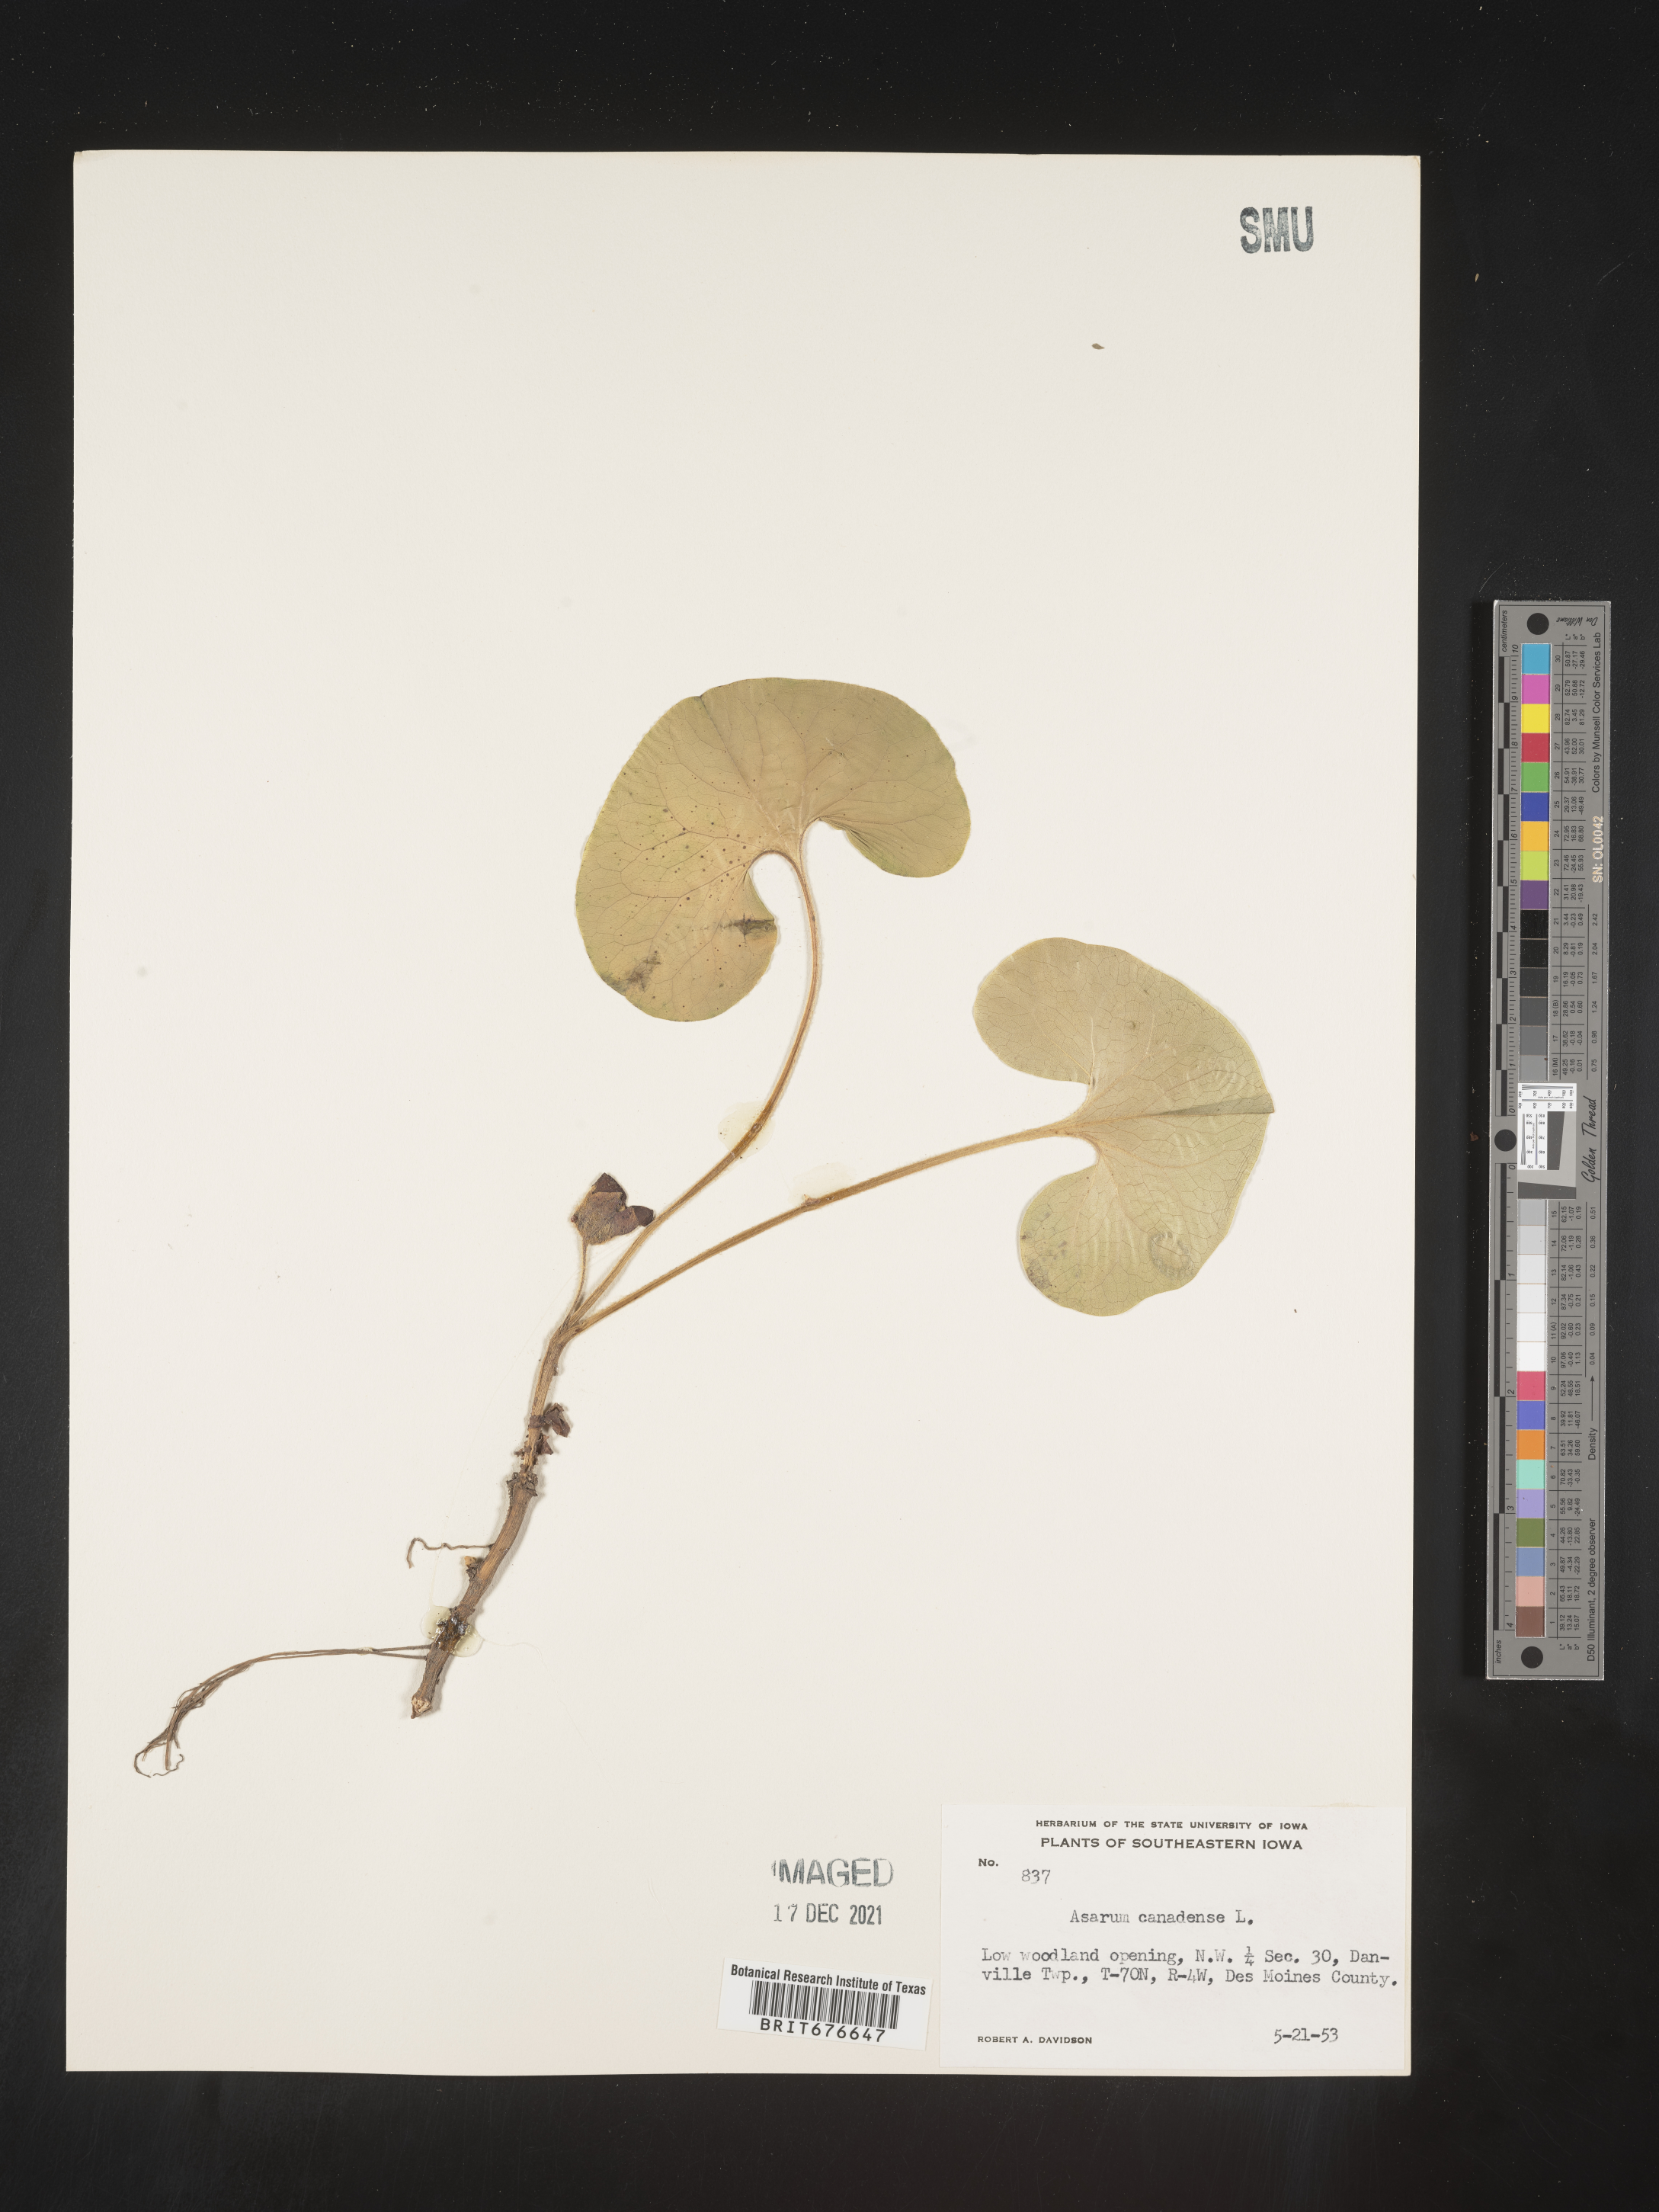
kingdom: Plantae
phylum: Tracheophyta
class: Magnoliopsida
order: Piperales
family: Aristolochiaceae
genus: Asarum
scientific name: Asarum canadense
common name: Wild ginger
